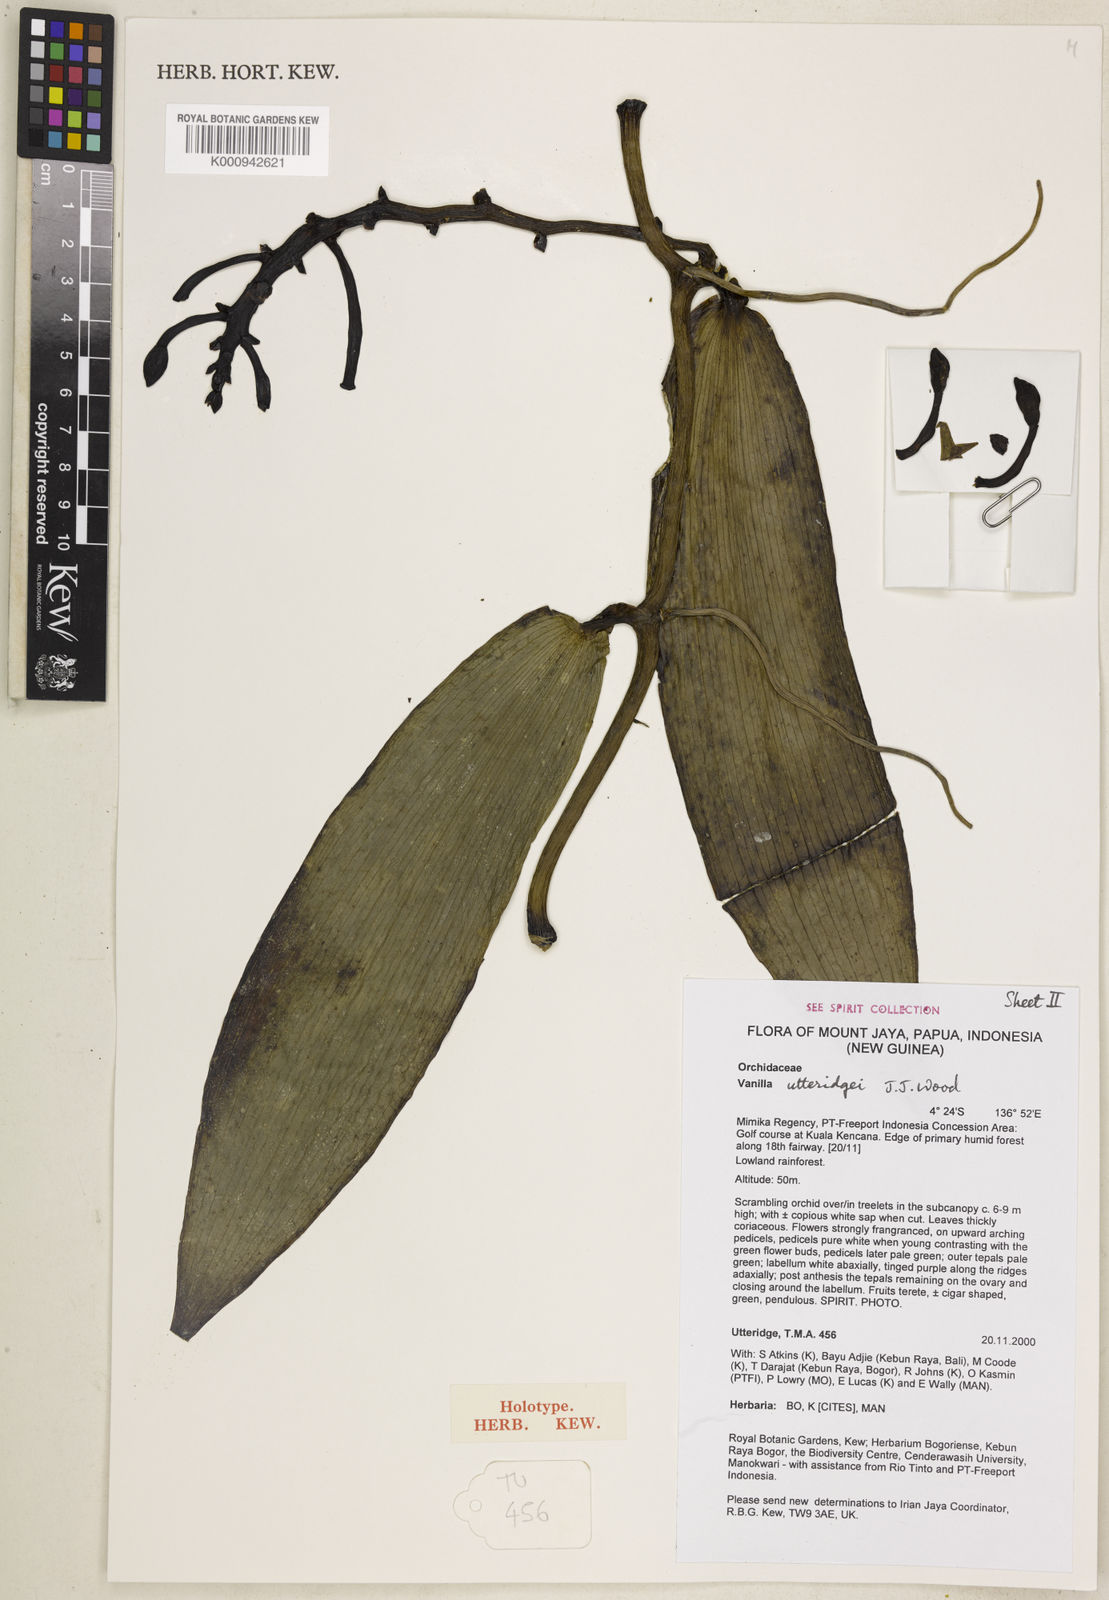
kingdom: Plantae
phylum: Tracheophyta
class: Liliopsida
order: Asparagales
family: Orchidaceae
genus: Vanilla
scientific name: Vanilla utteridgei
